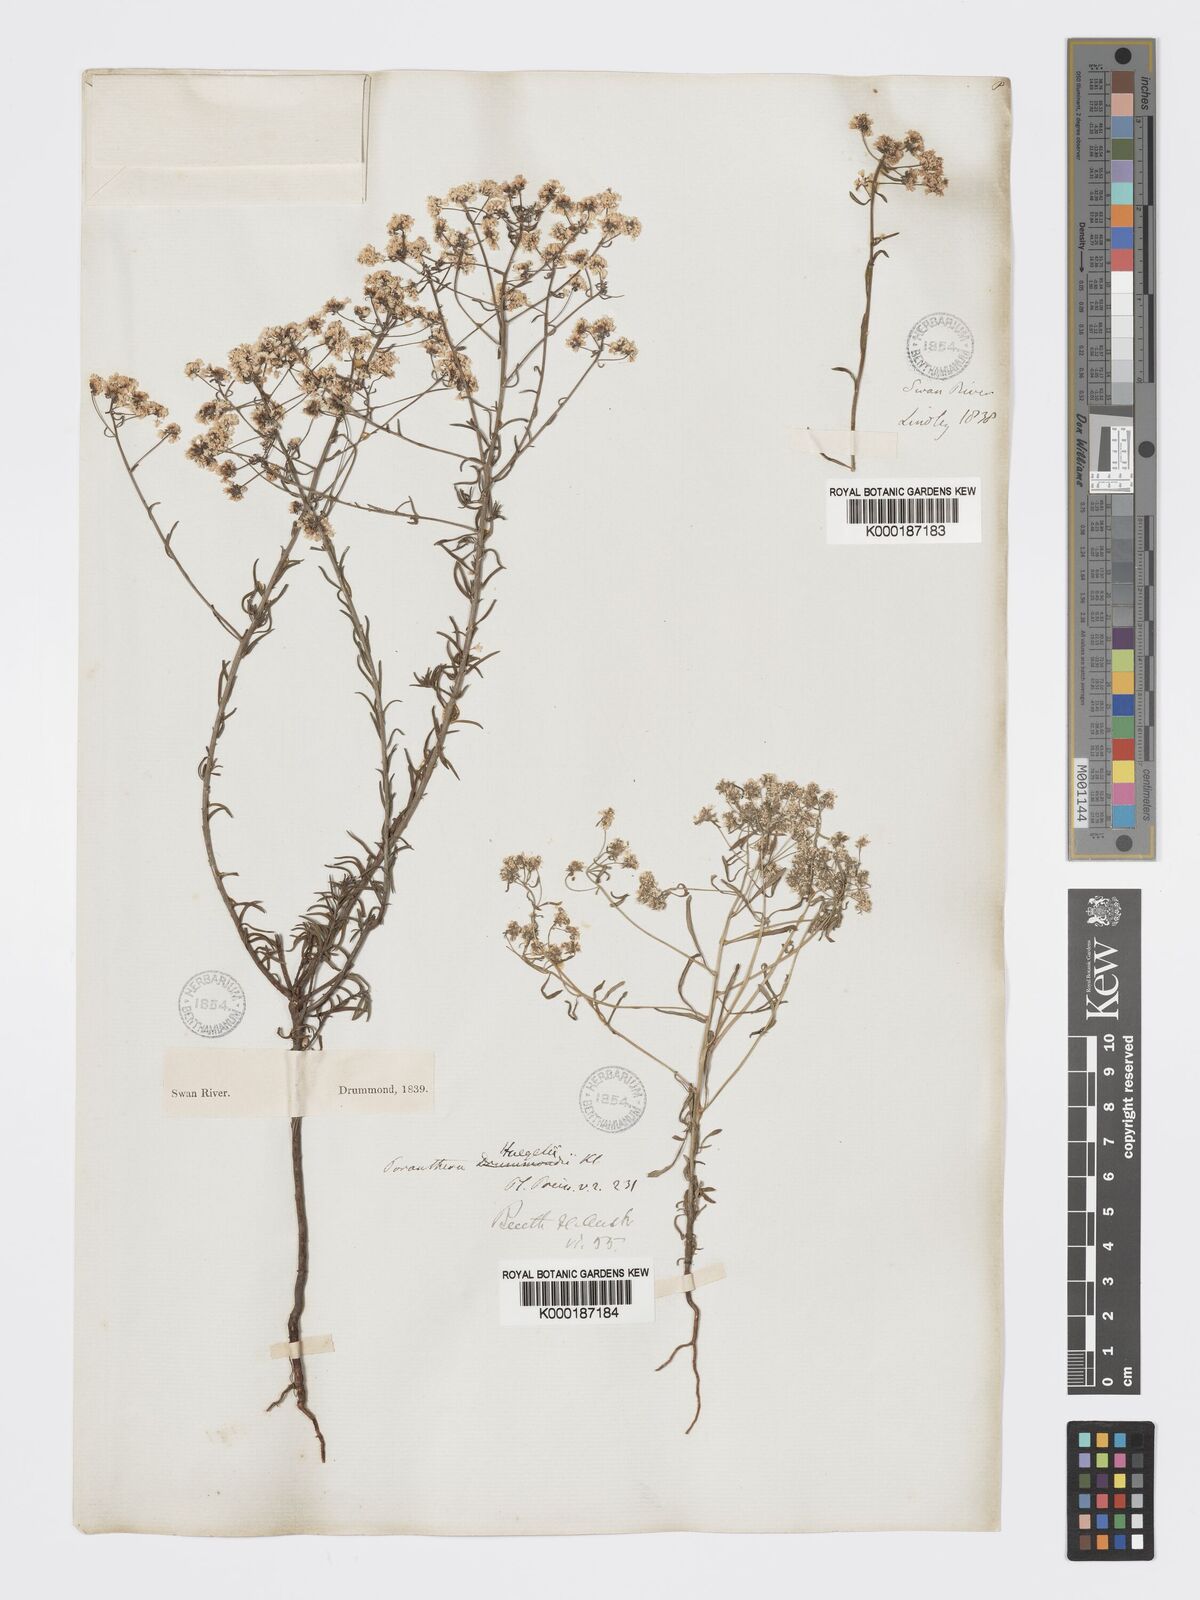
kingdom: Plantae
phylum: Tracheophyta
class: Magnoliopsida
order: Malpighiales
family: Phyllanthaceae
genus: Poranthera
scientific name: Poranthera huegelii
